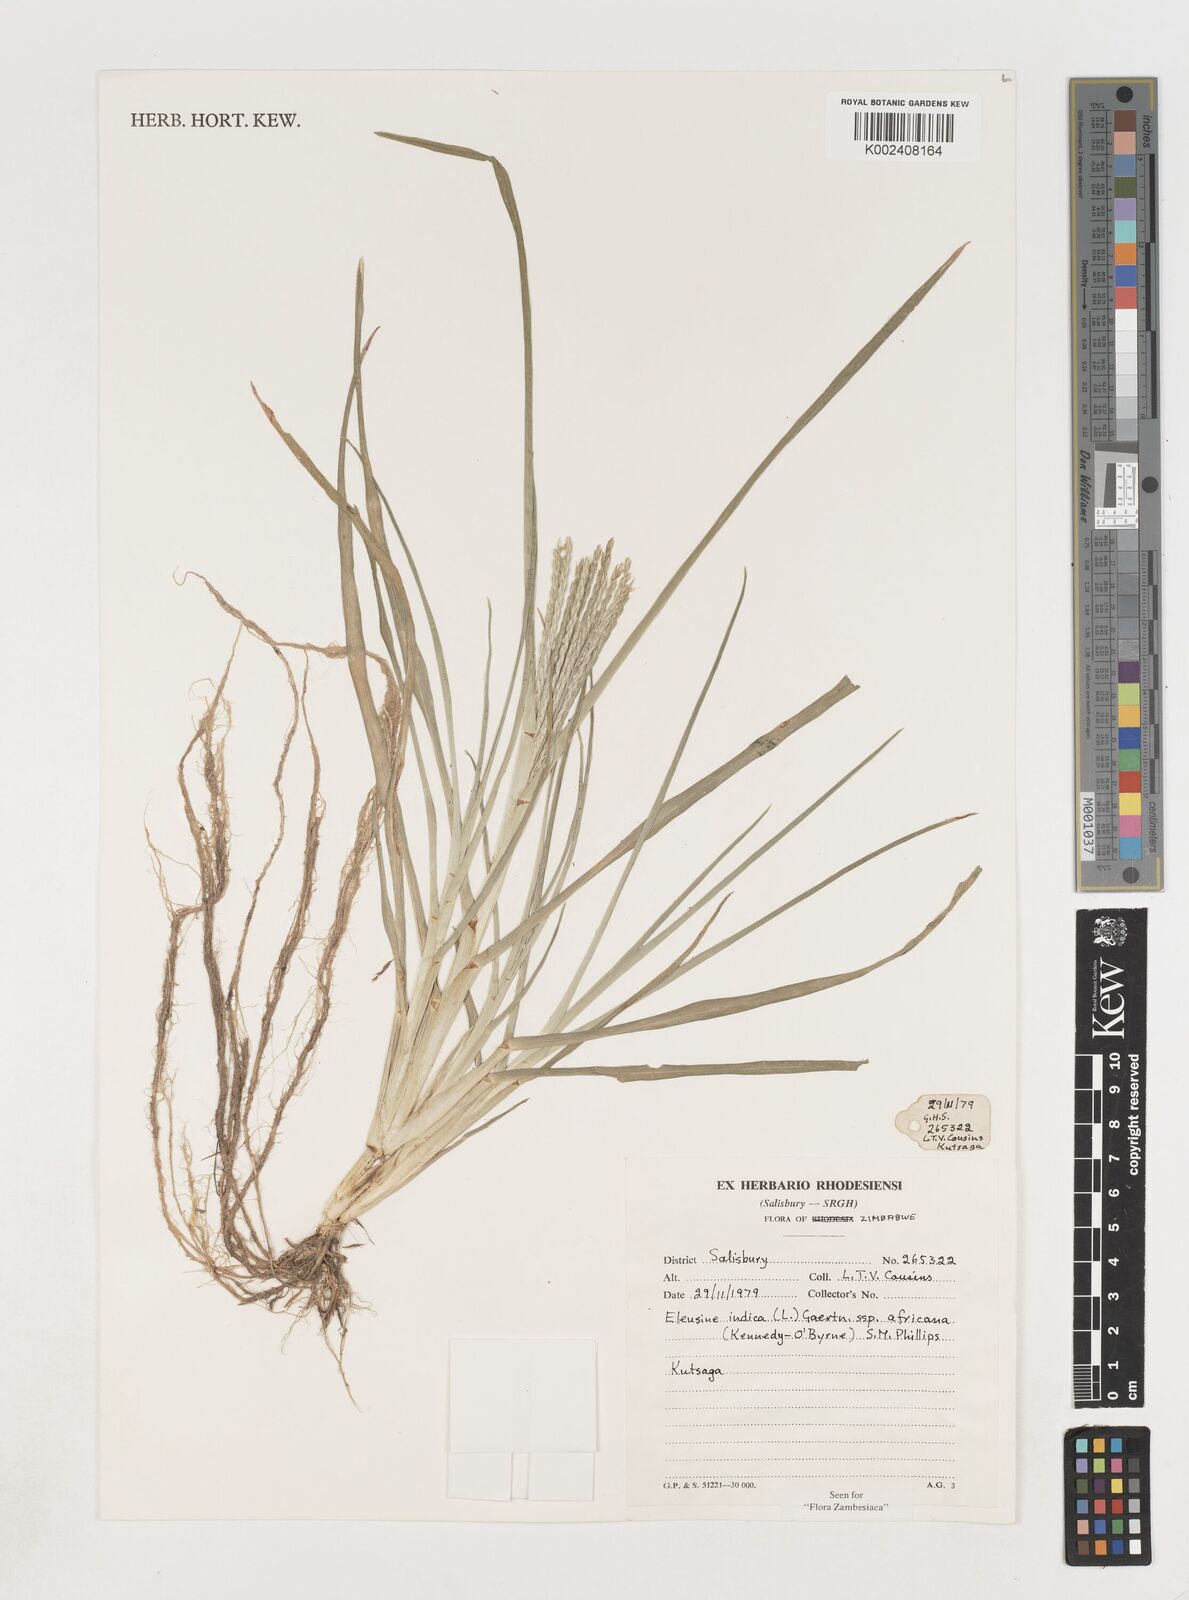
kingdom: Plantae
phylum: Tracheophyta
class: Liliopsida
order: Poales
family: Poaceae
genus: Eleusine
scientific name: Eleusine africana
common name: Wild african finger millet
